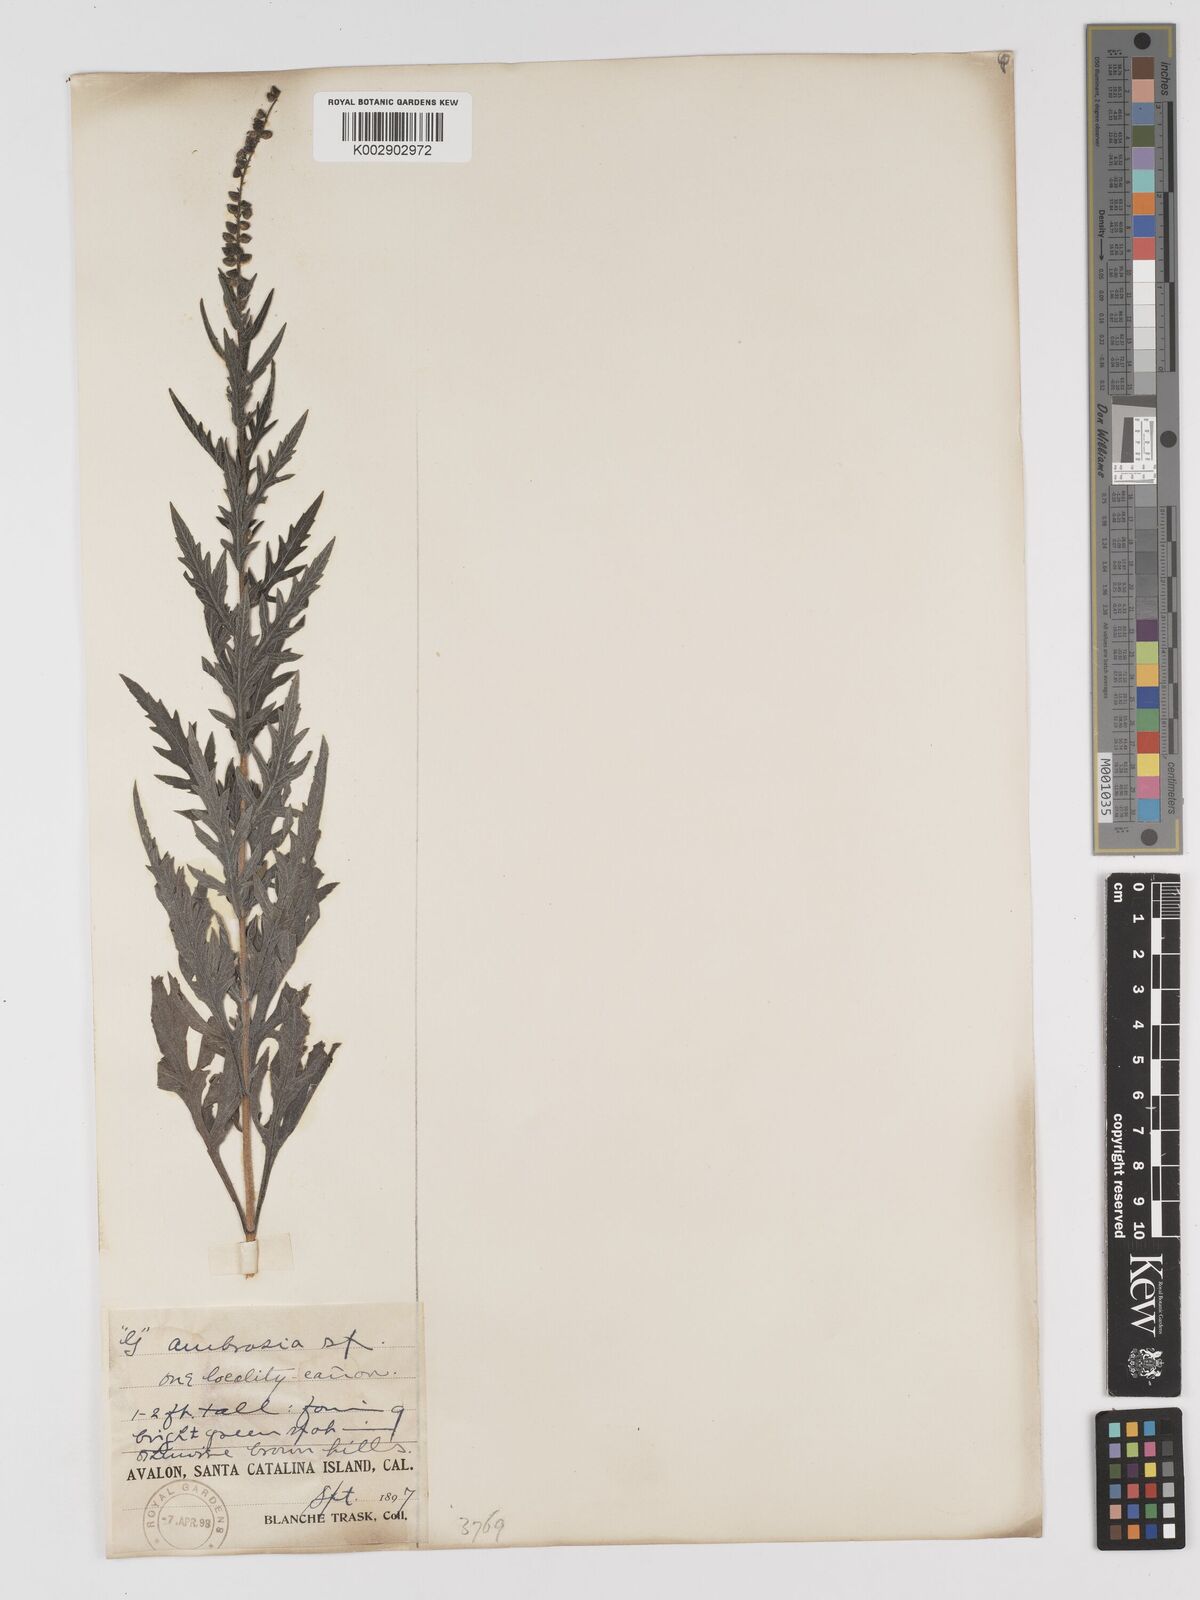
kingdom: Plantae
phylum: Tracheophyta
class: Magnoliopsida
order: Asterales
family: Asteraceae
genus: Ambrosia
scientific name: Ambrosia psilostachya
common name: Perennial ragweed
